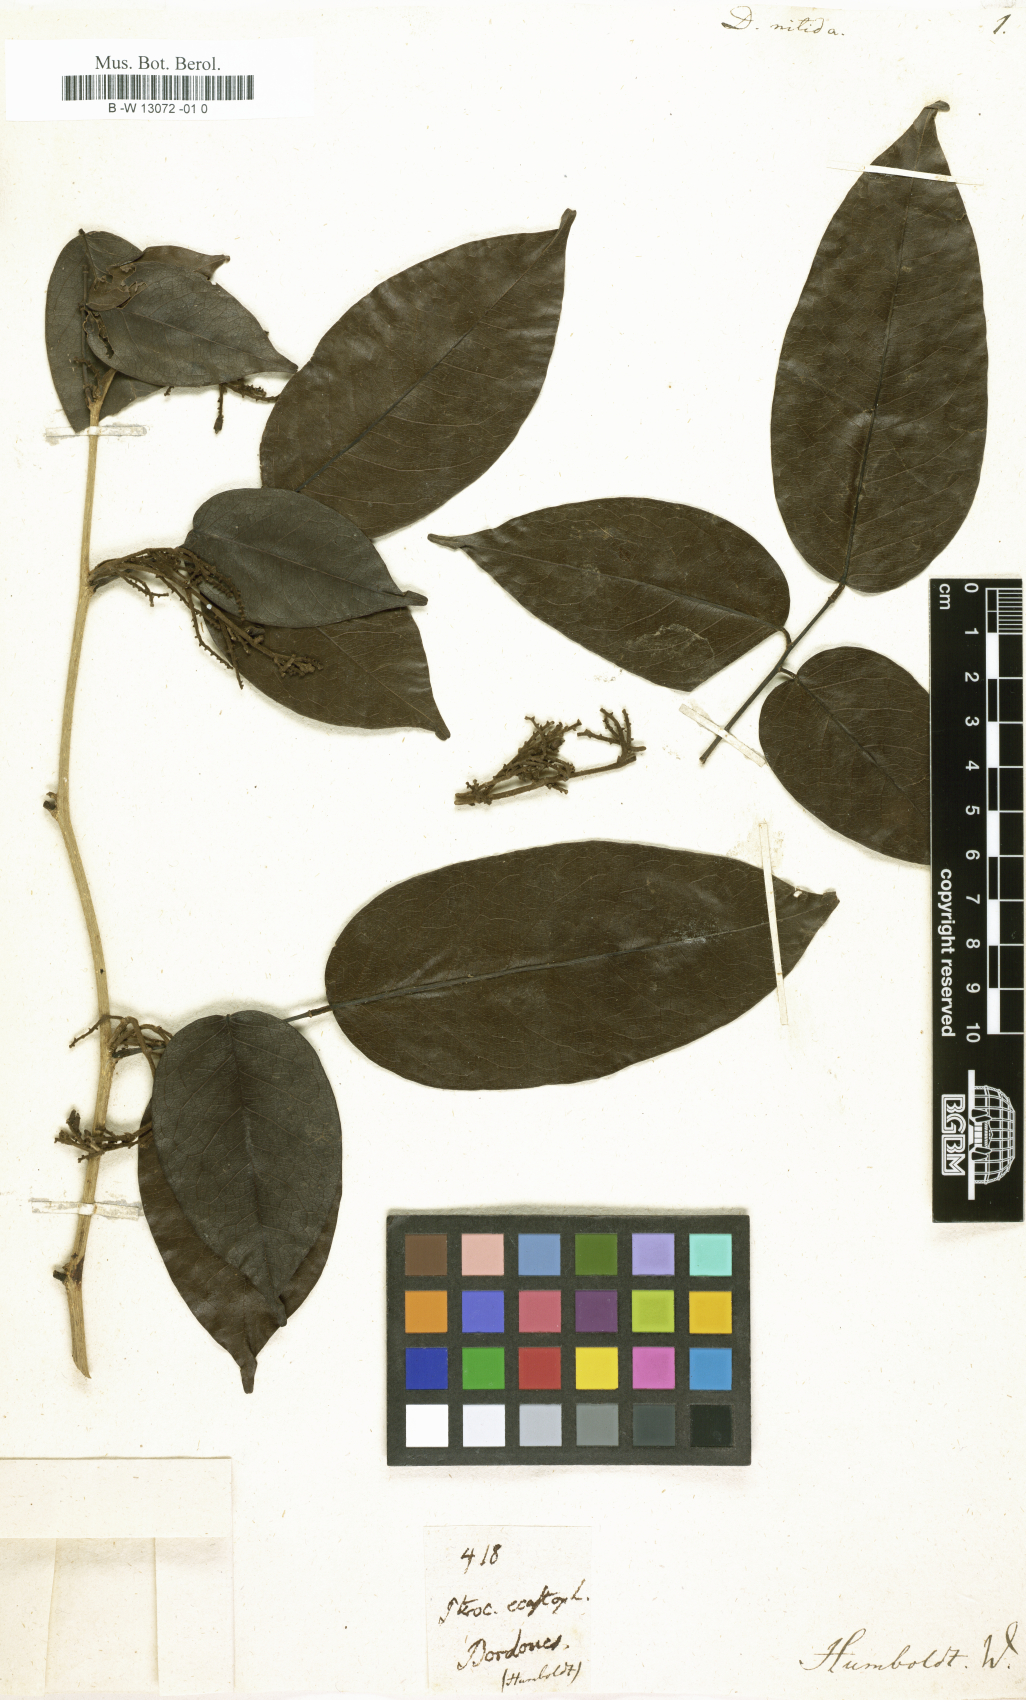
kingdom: Plantae
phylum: Tracheophyta
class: Magnoliopsida
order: Fabales
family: Fabaceae
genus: Dalbergia
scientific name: Dalbergia nitida
